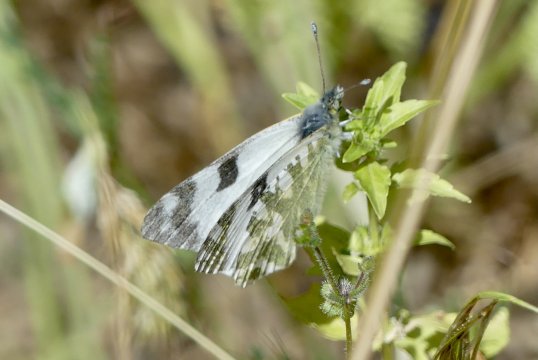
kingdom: Animalia
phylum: Arthropoda
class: Insecta
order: Lepidoptera
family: Pieridae
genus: Euchloe
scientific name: Euchloe belemia
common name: Green-striped White
